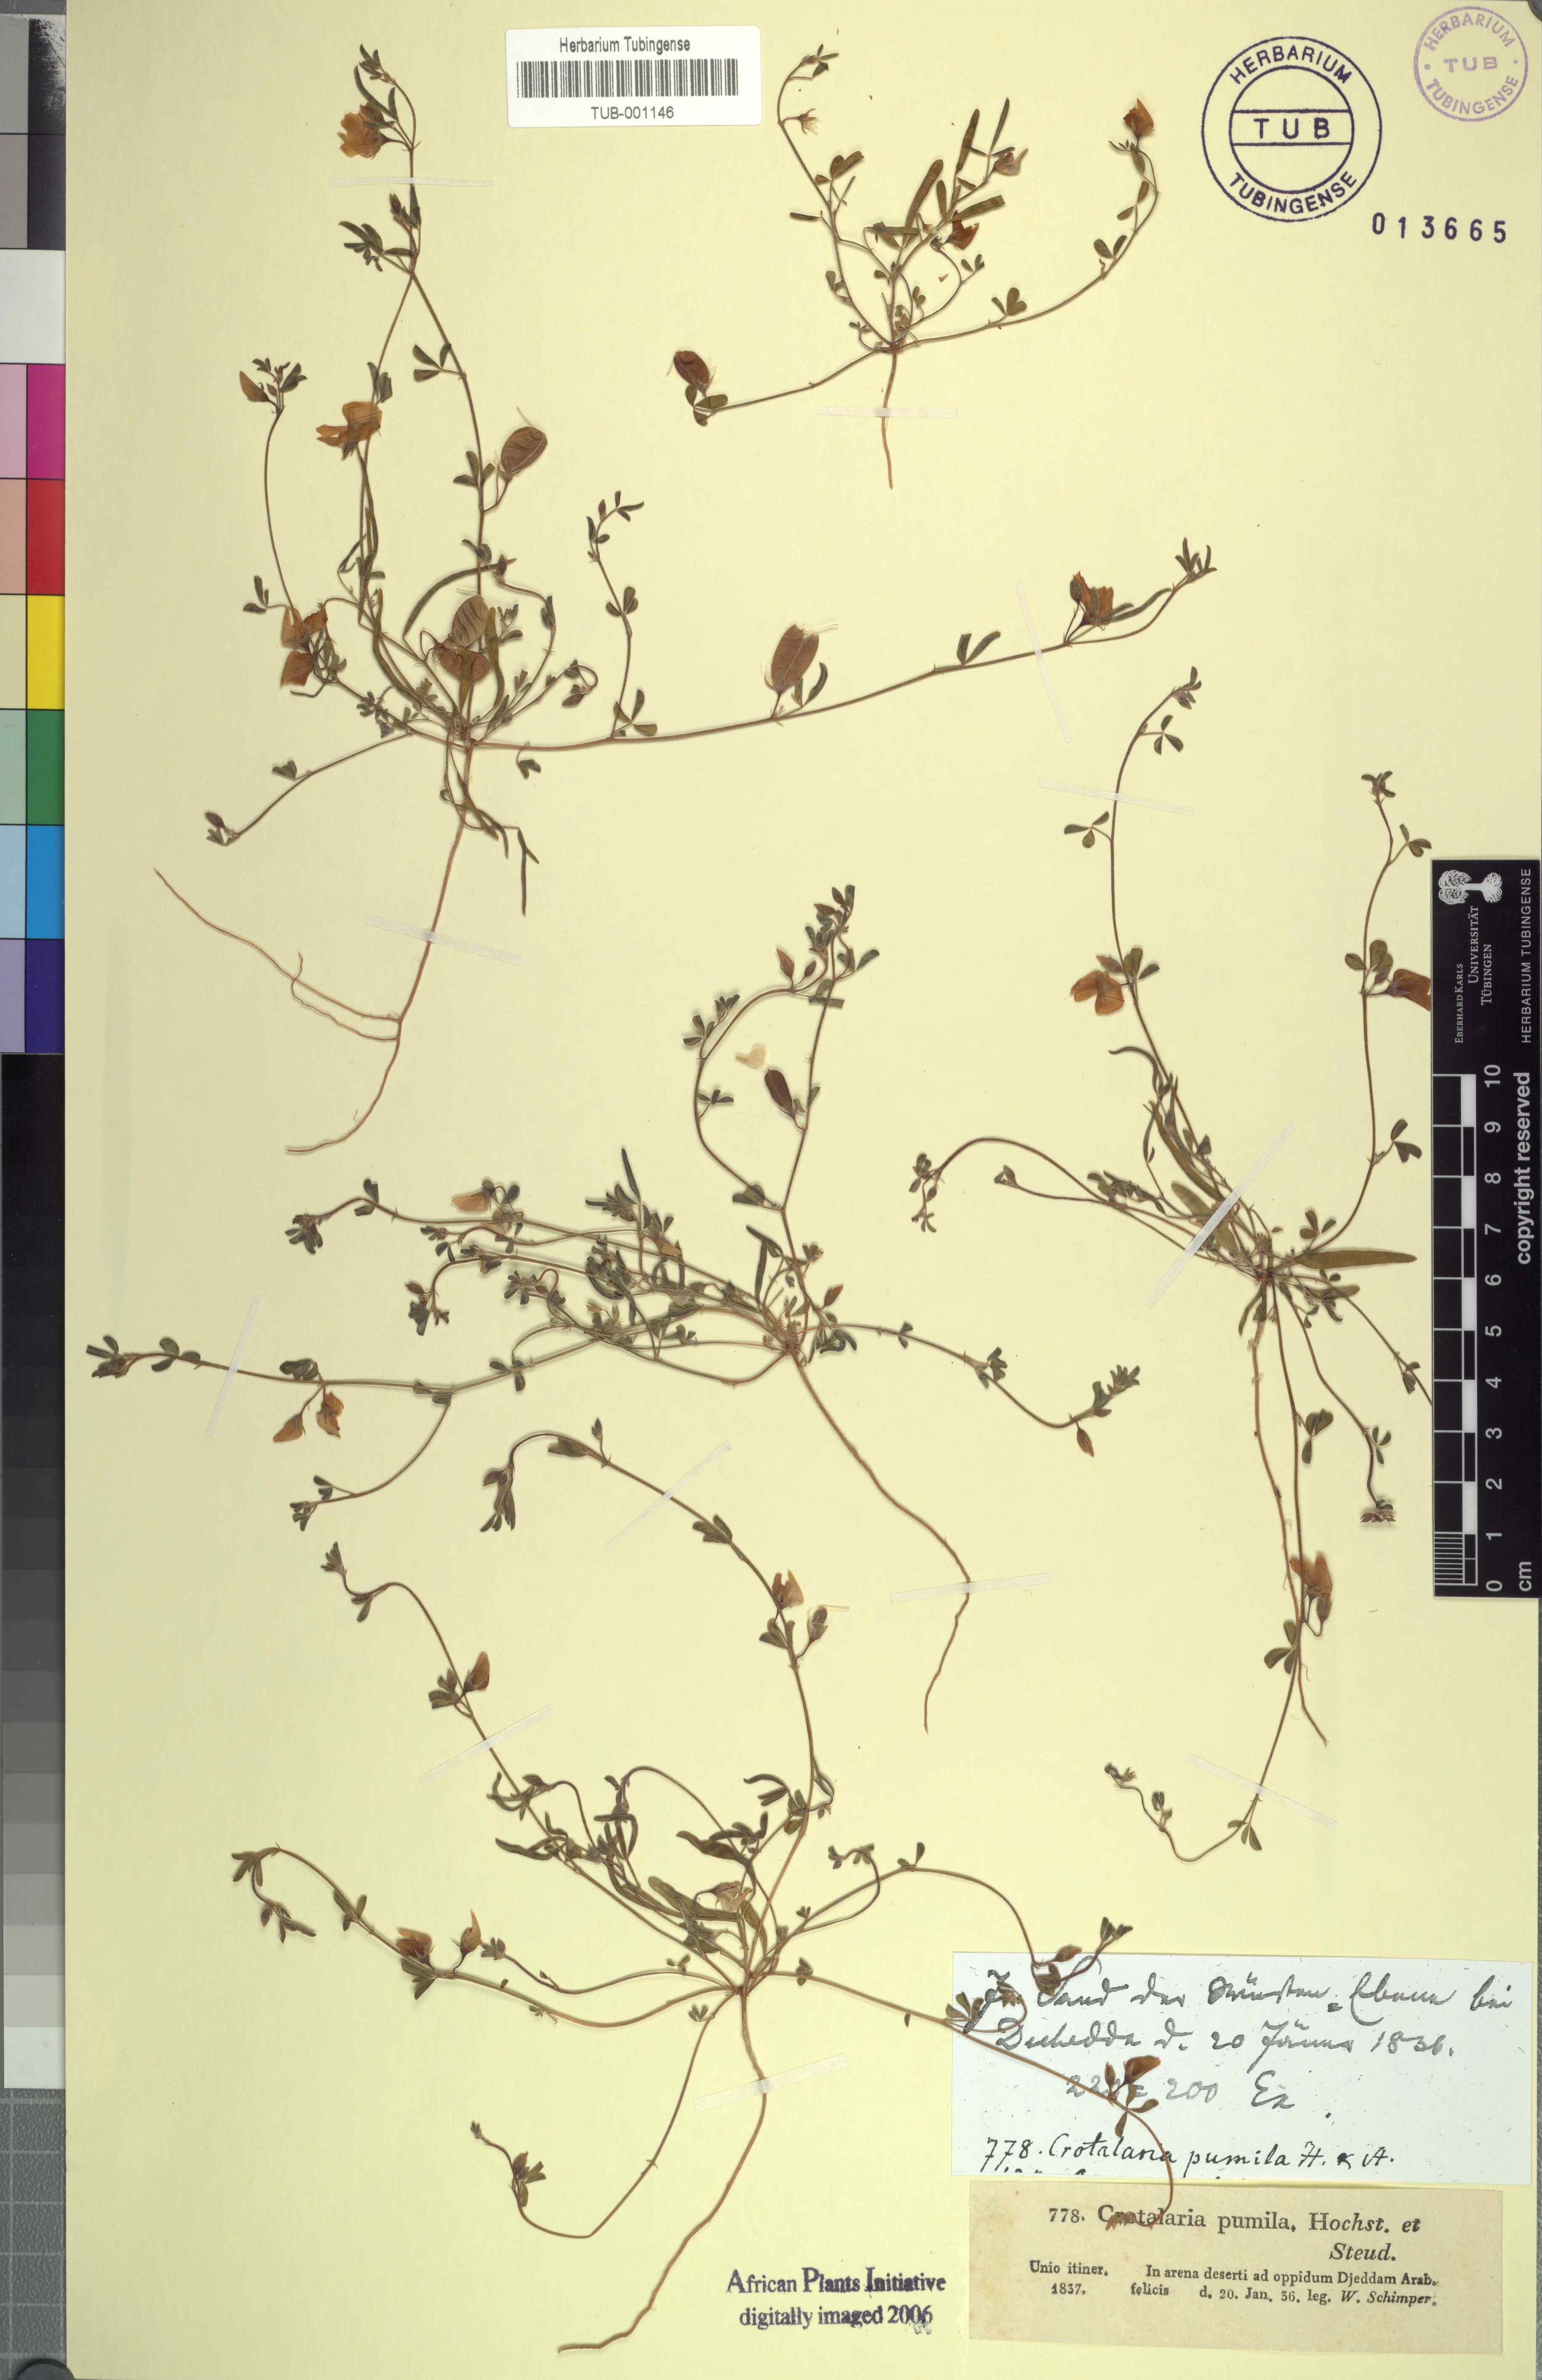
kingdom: Plantae
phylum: Tracheophyta
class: Magnoliopsida
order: Fabales
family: Fabaceae
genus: Crotalaria
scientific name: Crotalaria microphylla
